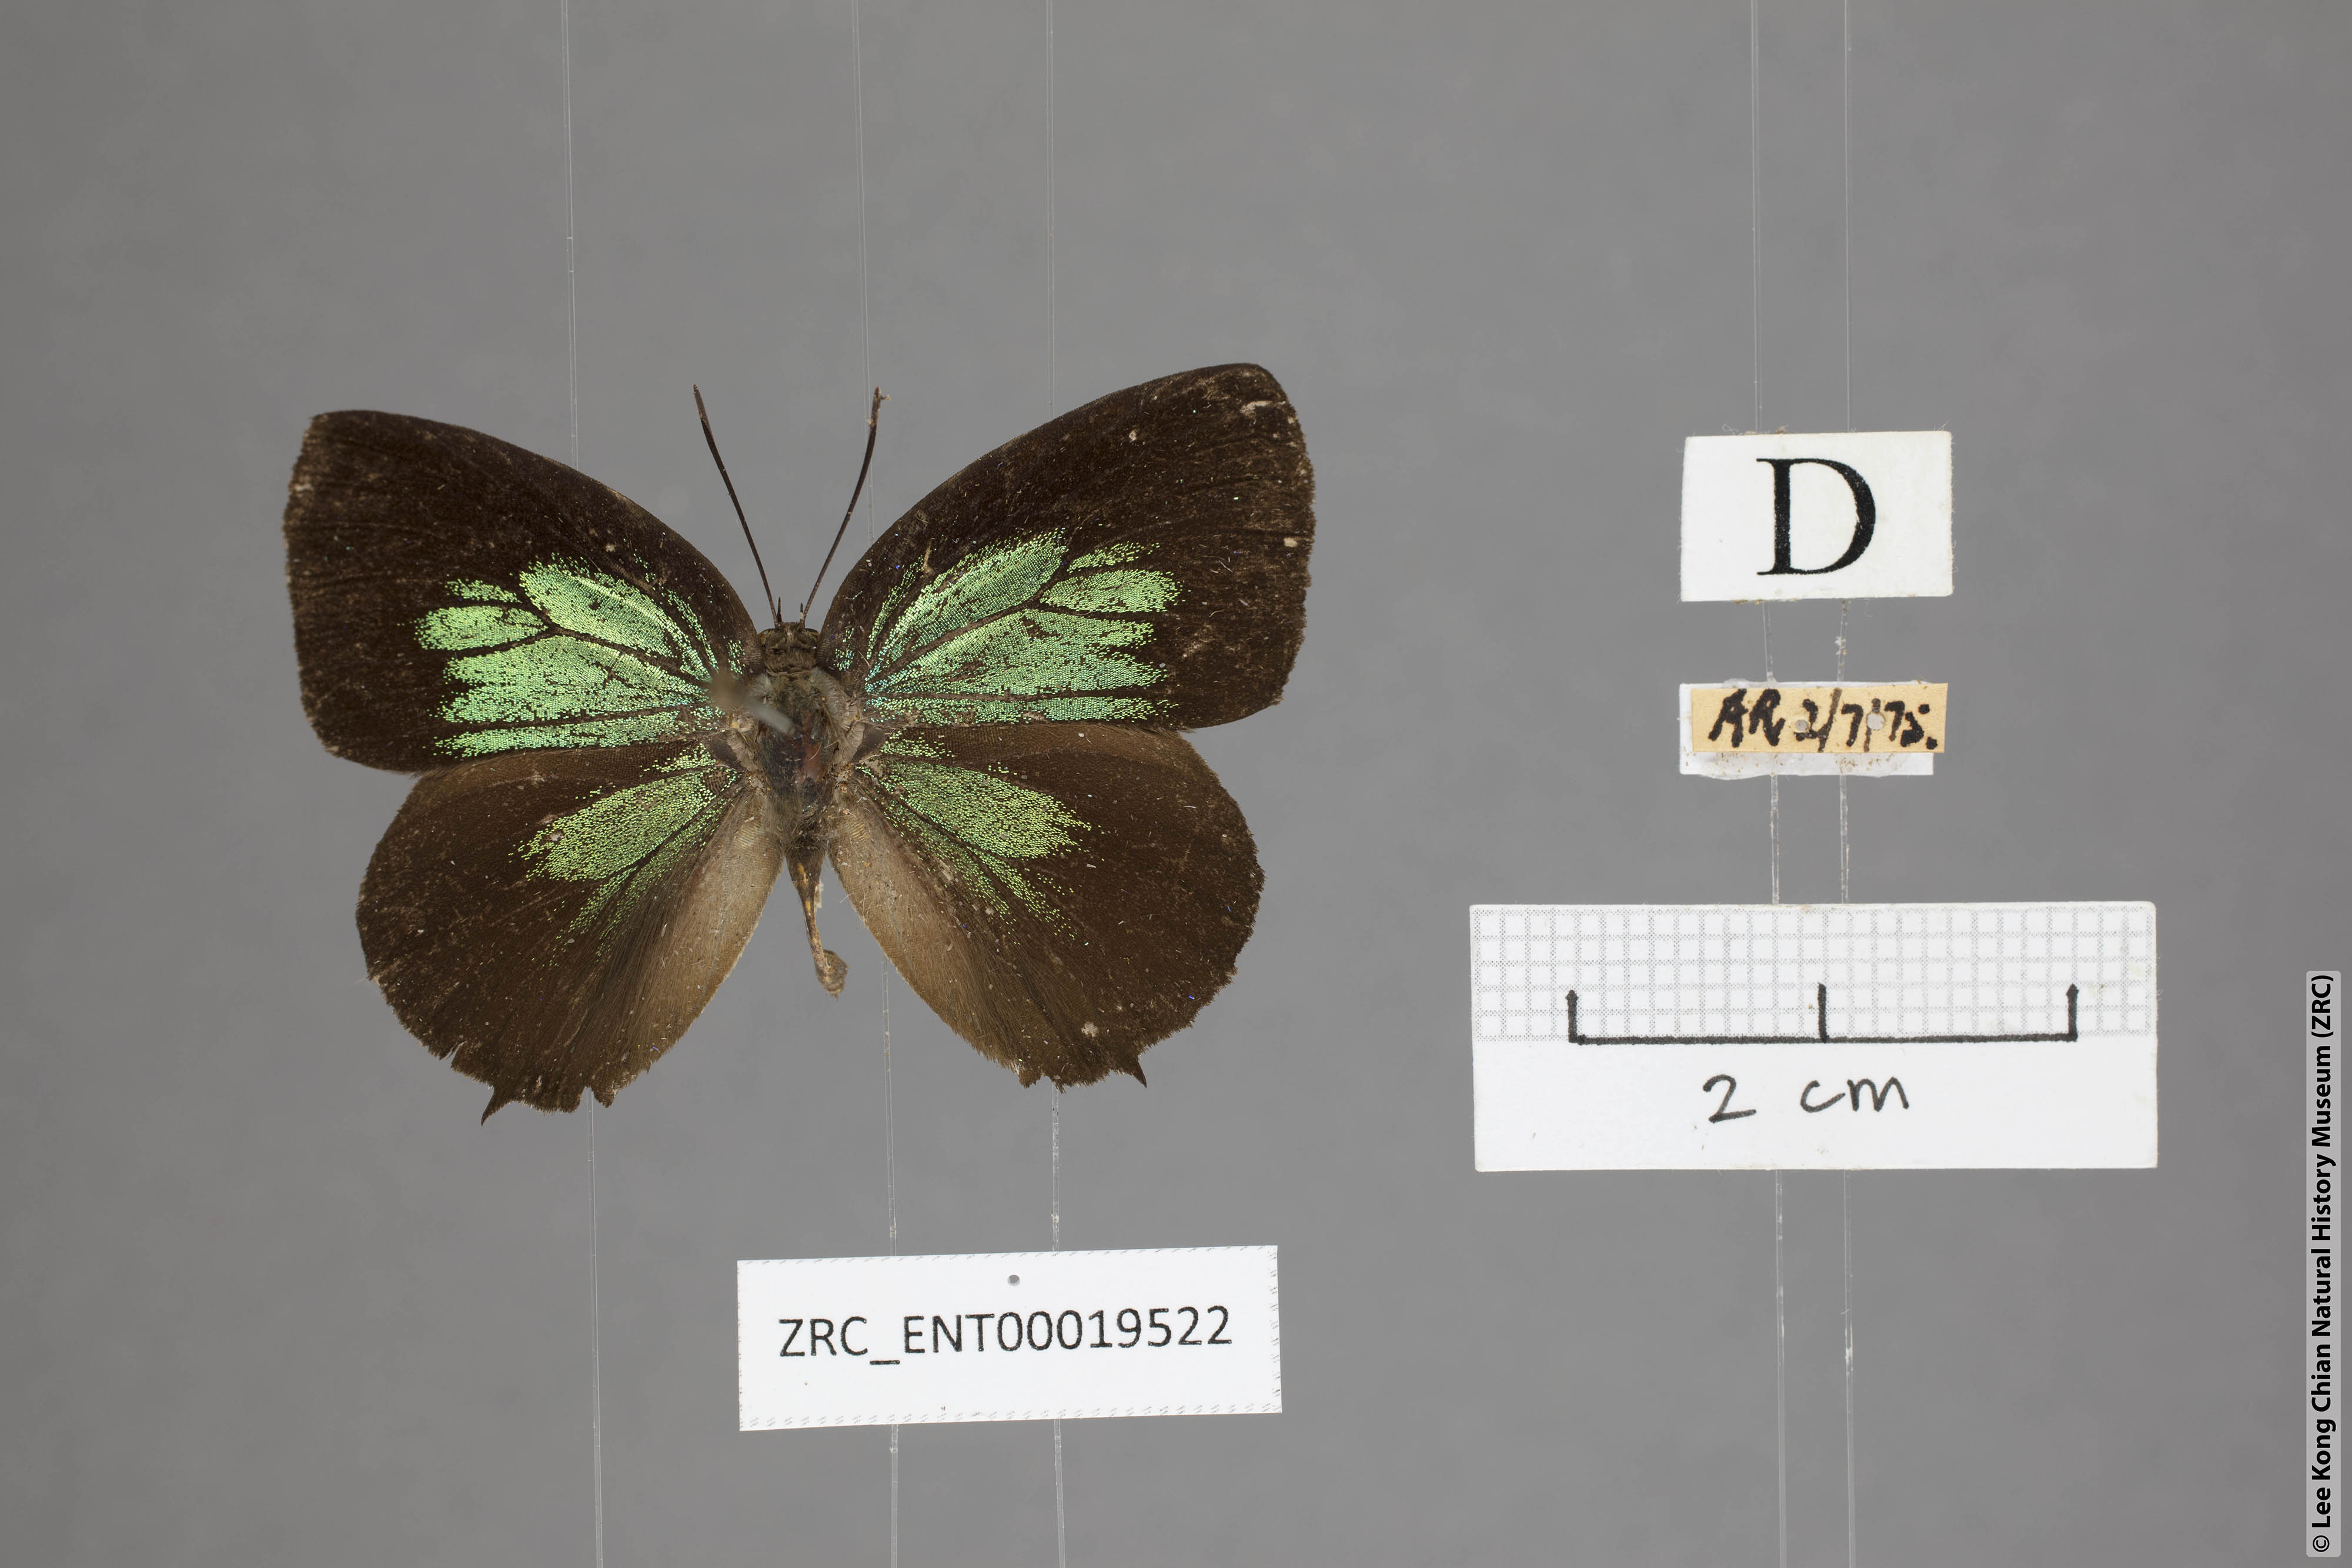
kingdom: Animalia
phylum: Arthropoda
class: Insecta
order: Lepidoptera
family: Lycaenidae
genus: Arhopala
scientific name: Arhopala horsfieldi
